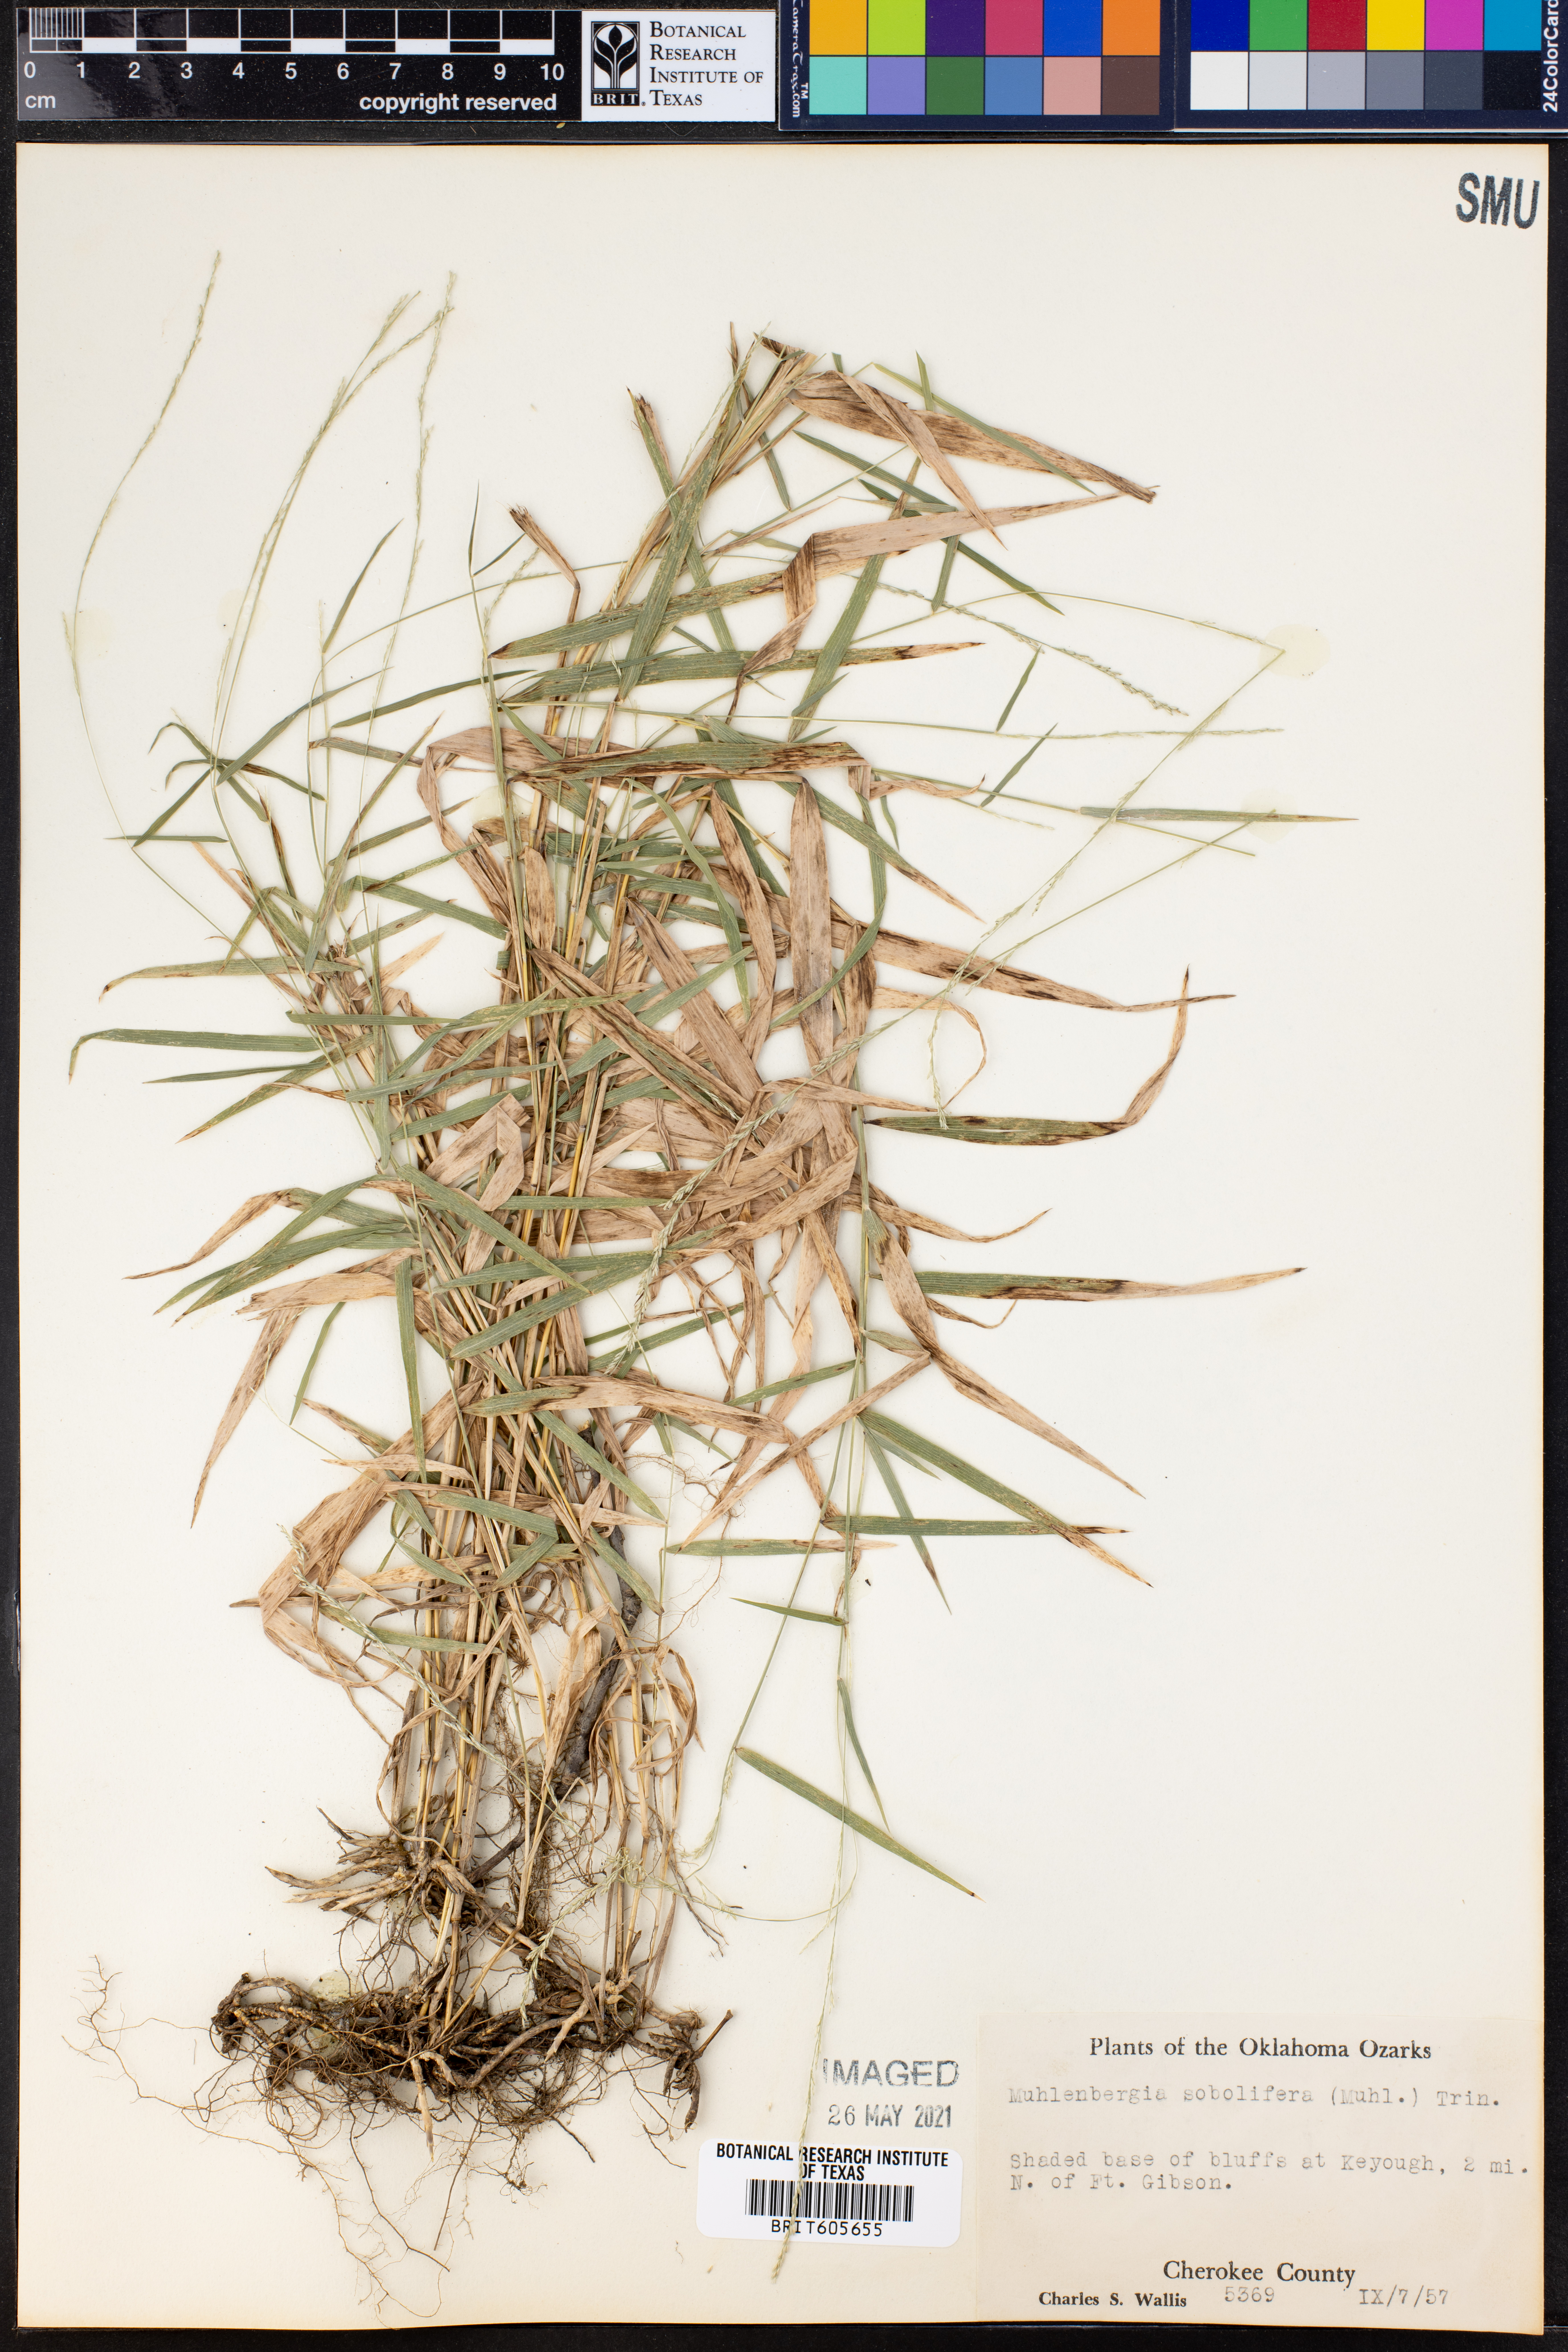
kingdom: Plantae
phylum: Tracheophyta
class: Liliopsida
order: Poales
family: Poaceae
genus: Muhlenbergia
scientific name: Muhlenbergia sobolifera
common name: Creeping muhly
